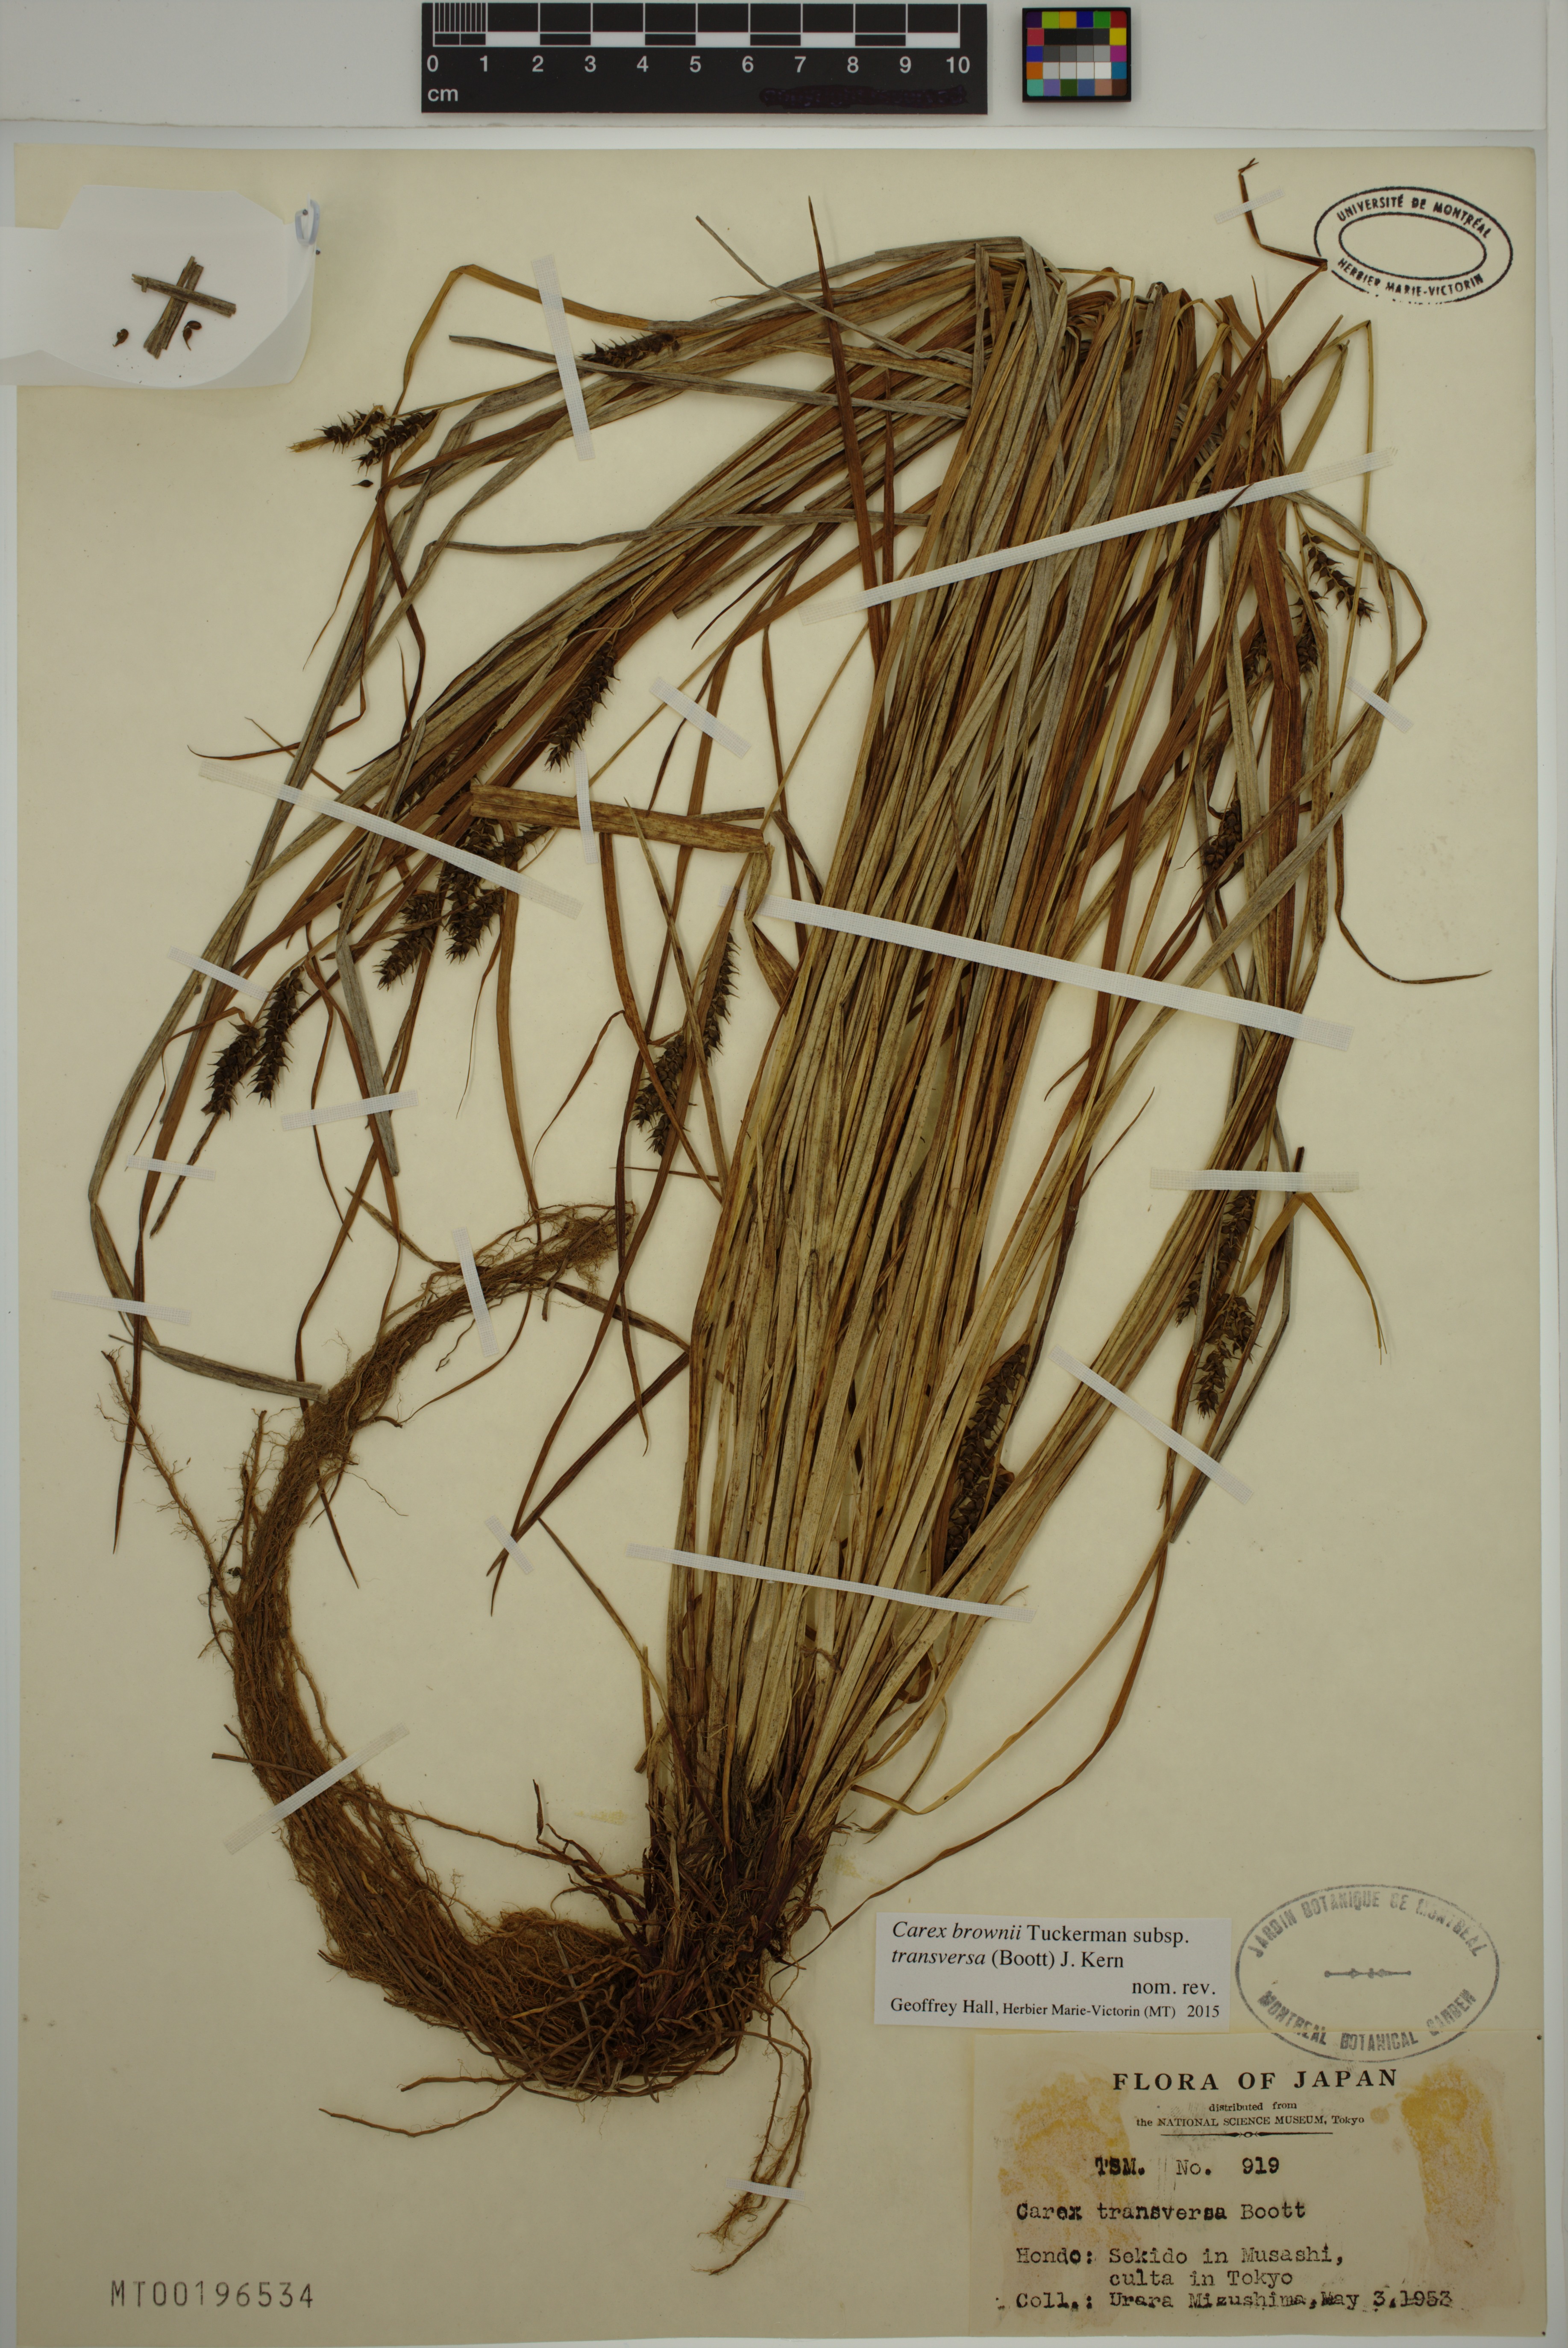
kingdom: Plantae
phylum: Tracheophyta
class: Liliopsida
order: Poales
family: Cyperaceae
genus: Carex
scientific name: Carex brownii
